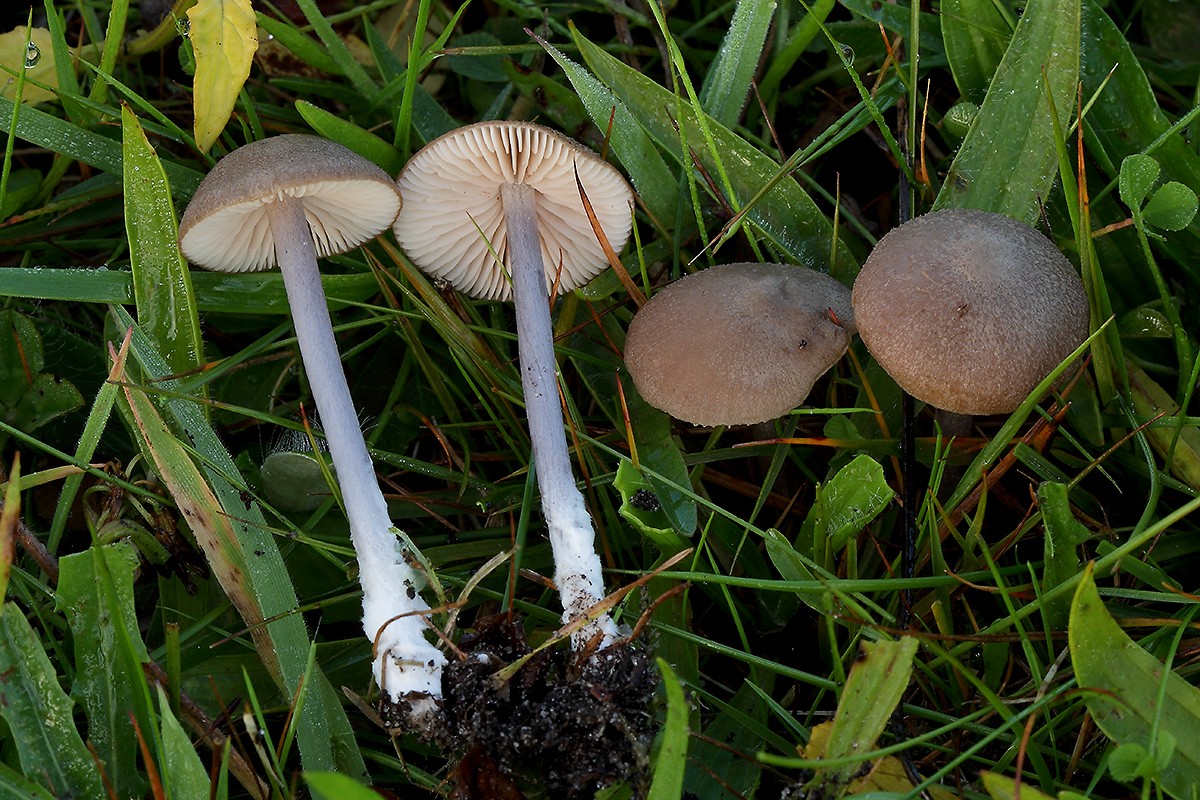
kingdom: Fungi
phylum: Basidiomycota
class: Agaricomycetes
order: Agaricales
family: Entolomataceae
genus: Entoloma
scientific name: Entoloma griseocyaneum
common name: gråblå rødblad
